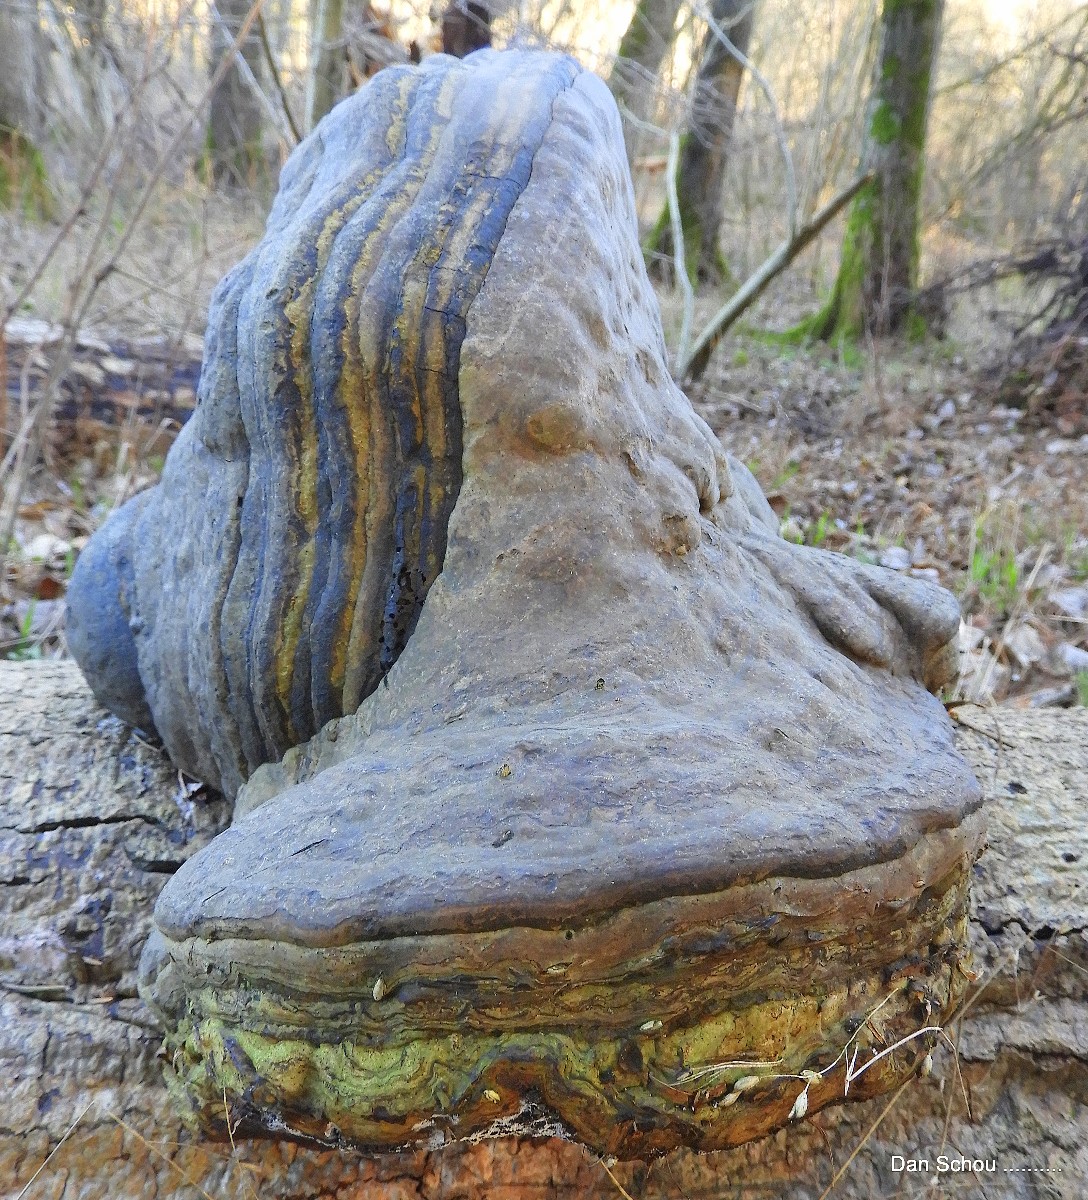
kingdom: Fungi
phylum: Basidiomycota
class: Agaricomycetes
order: Polyporales
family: Polyporaceae
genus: Fomes
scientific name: Fomes fomentarius
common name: tøndersvamp
